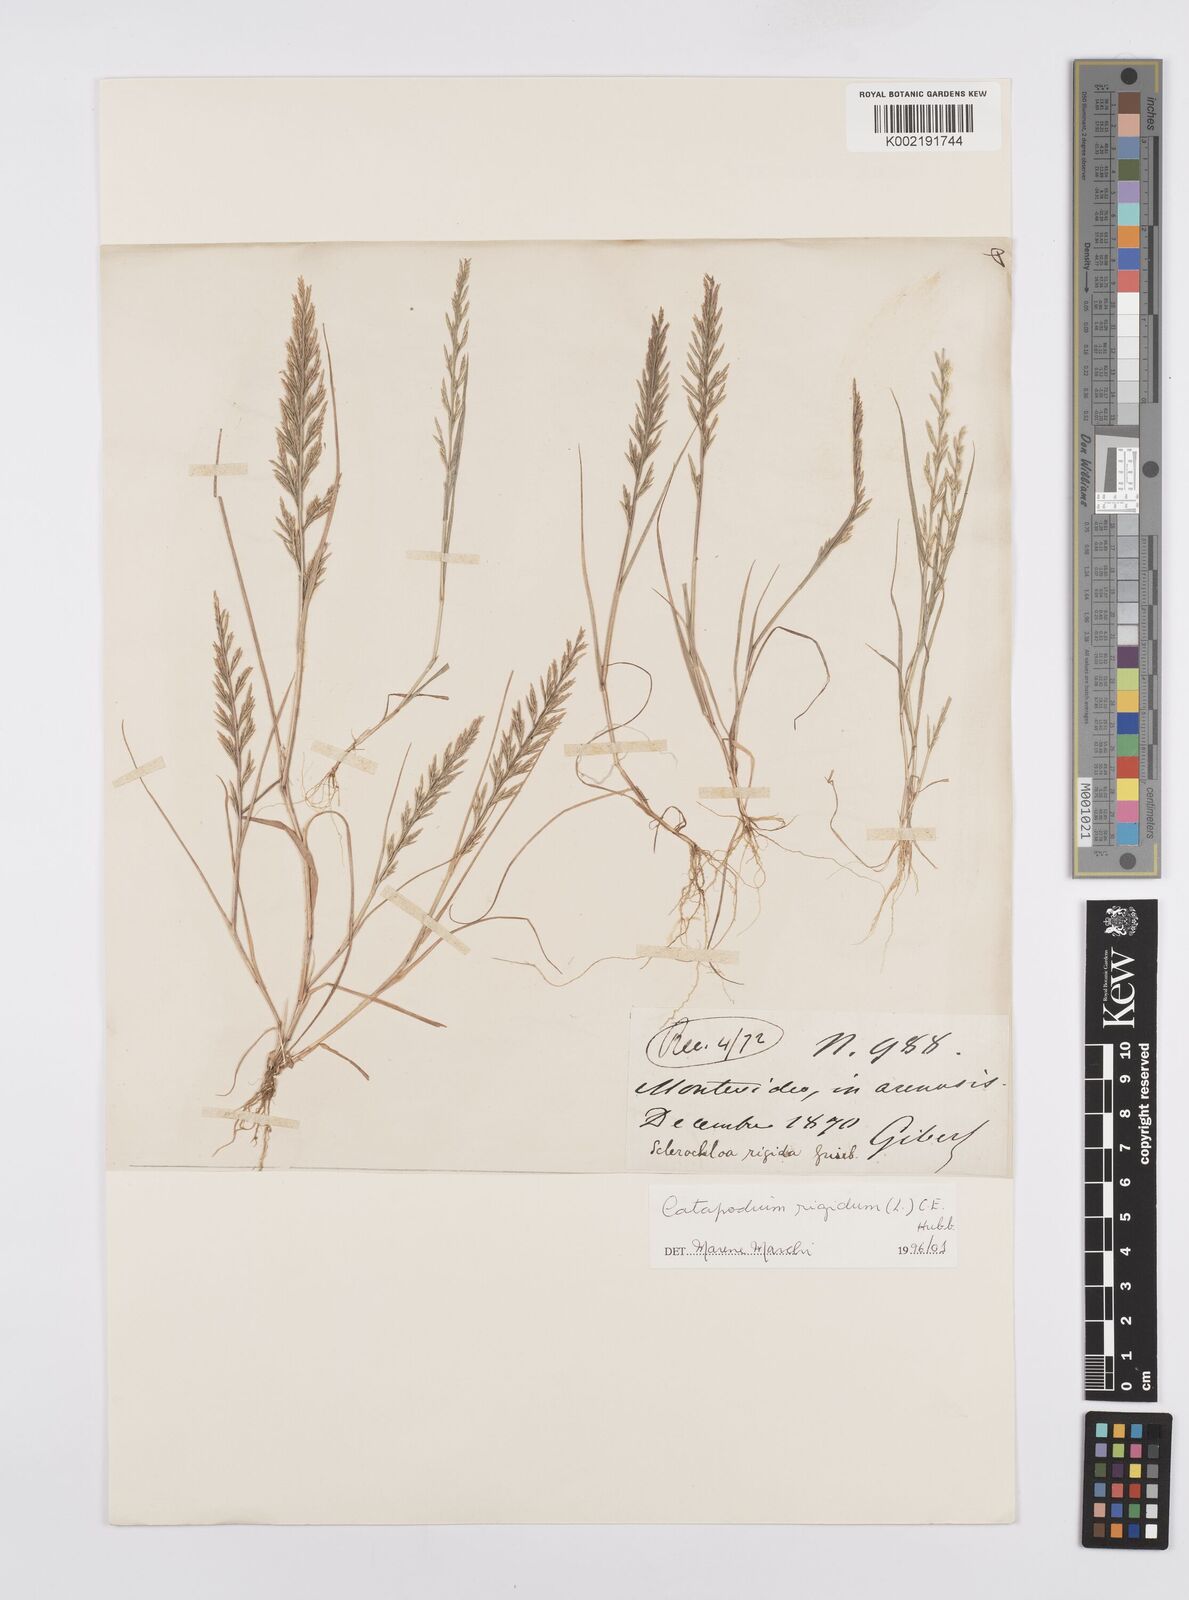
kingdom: Plantae
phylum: Tracheophyta
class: Liliopsida
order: Poales
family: Poaceae
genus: Catapodium
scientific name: Catapodium rigidum
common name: Fern-grass
